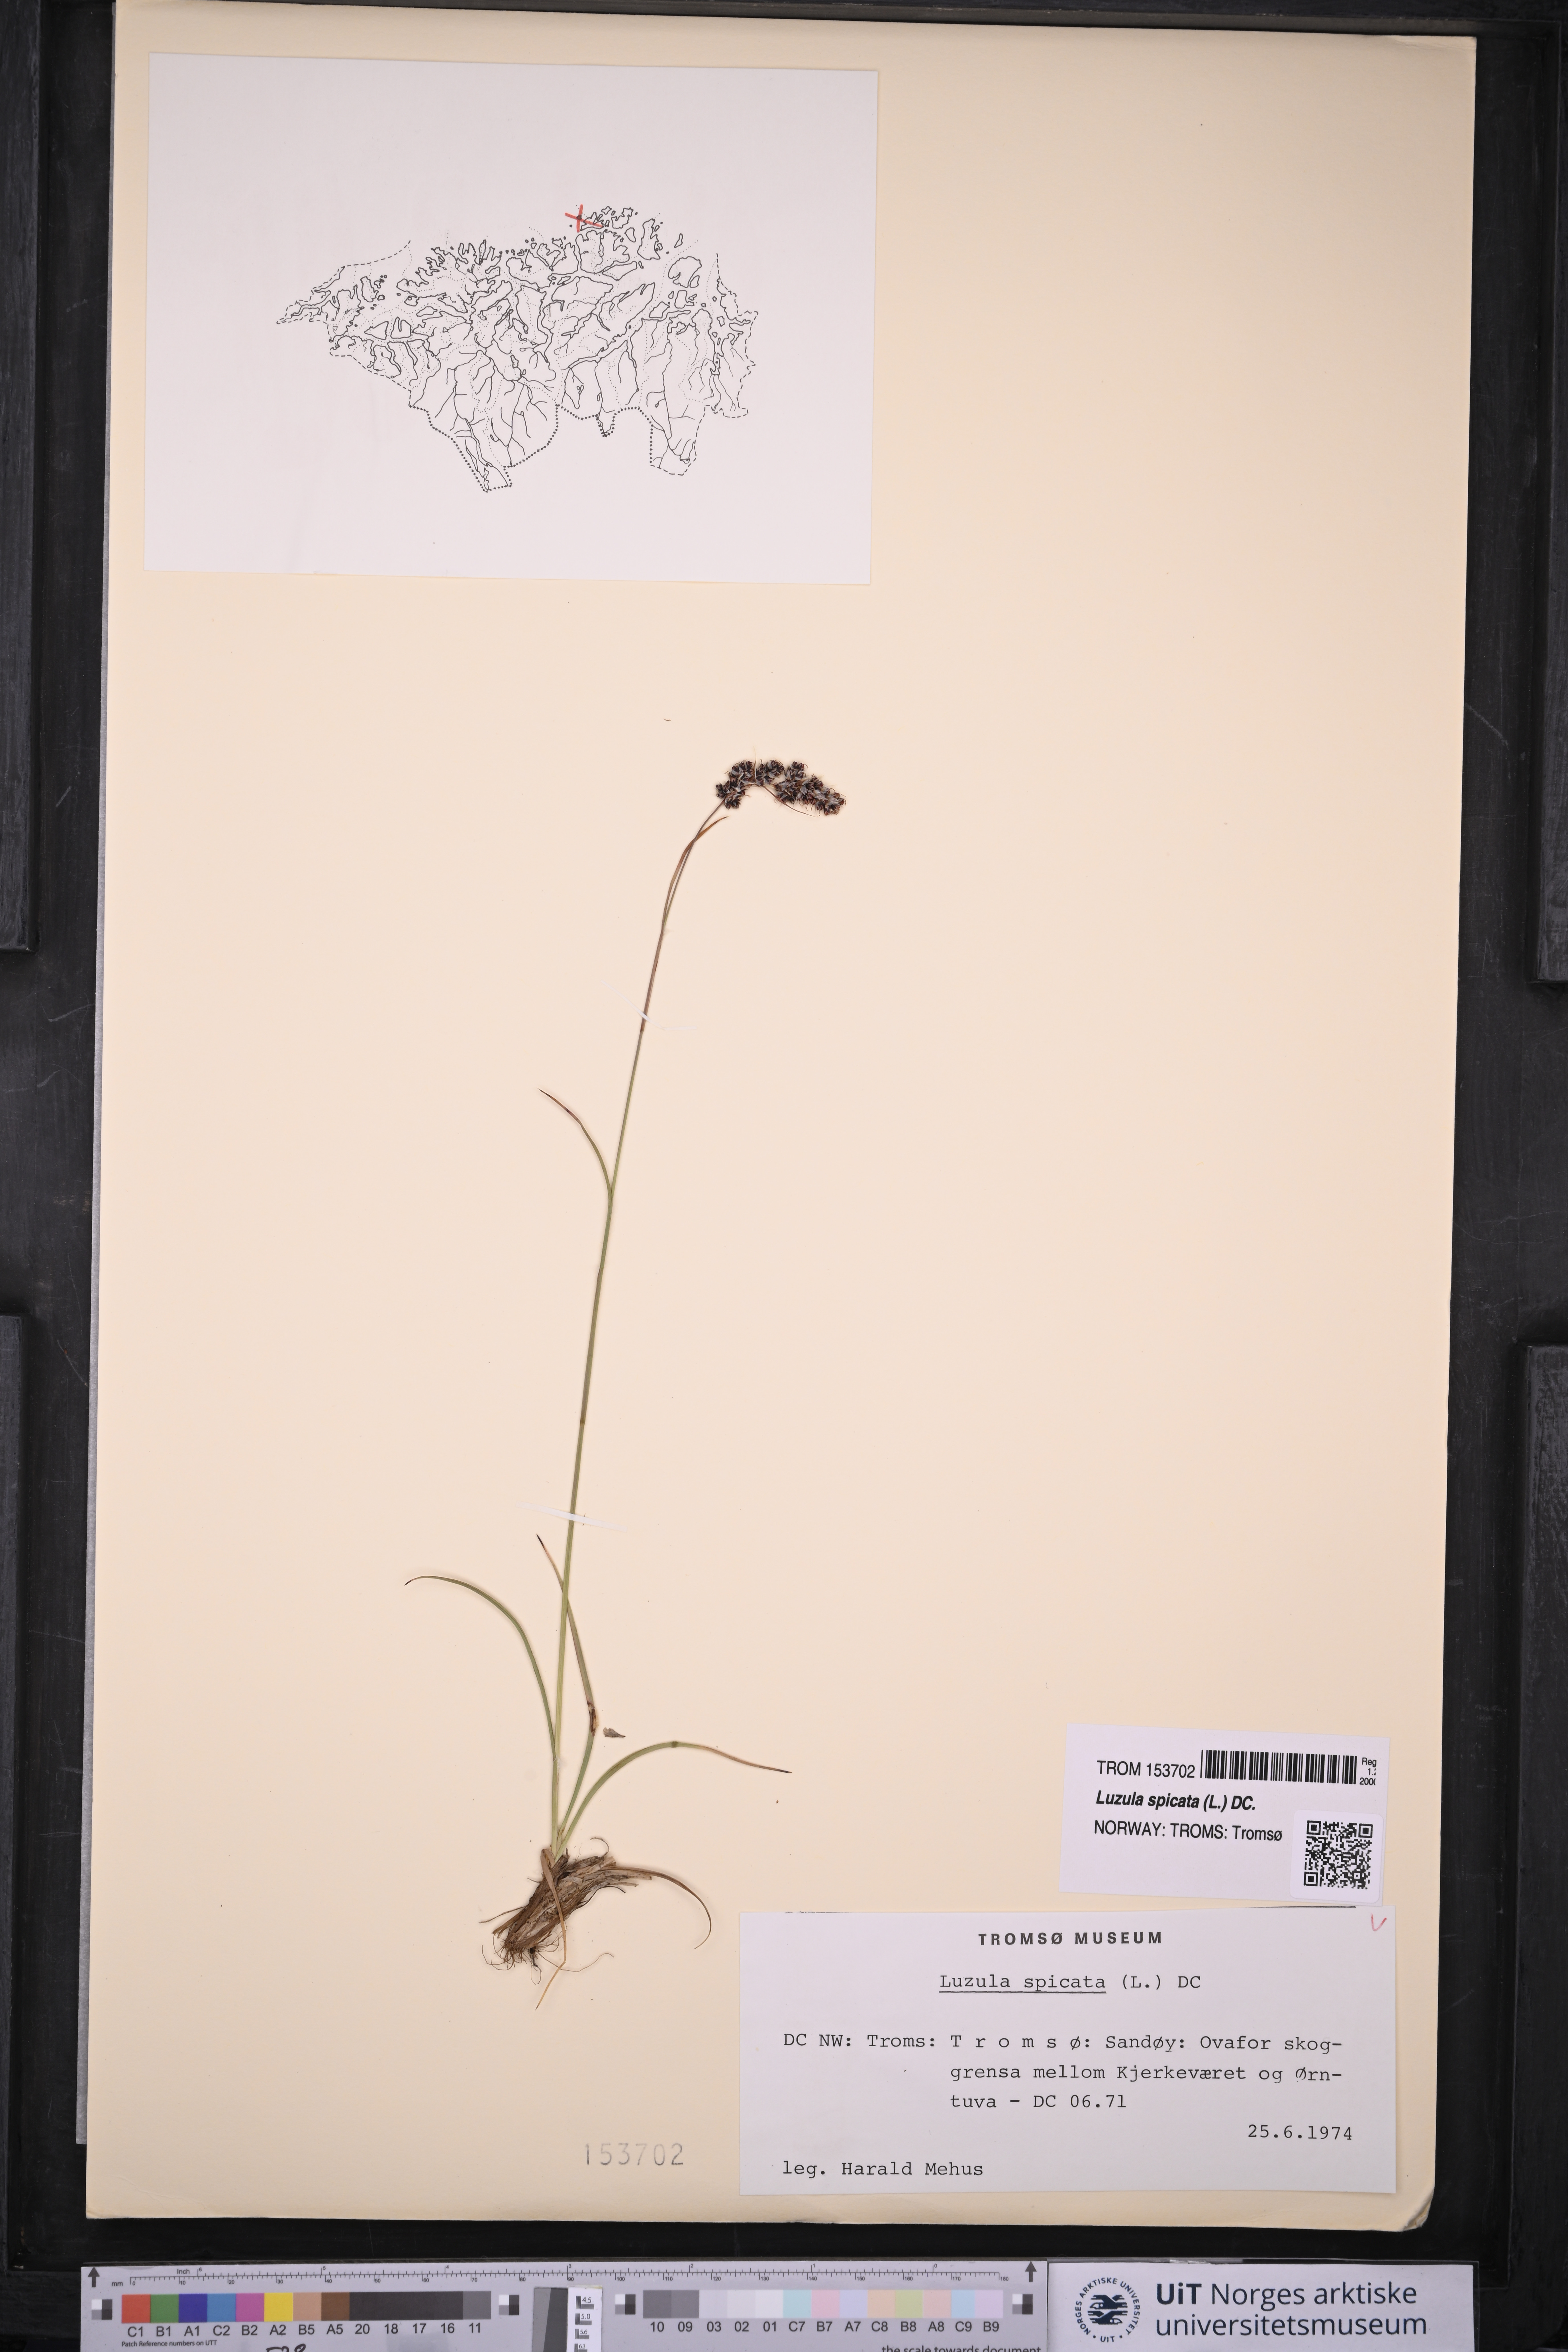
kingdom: Plantae
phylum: Tracheophyta
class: Liliopsida
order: Poales
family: Juncaceae
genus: Luzula
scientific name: Luzula spicata
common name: Spiked wood-rush
